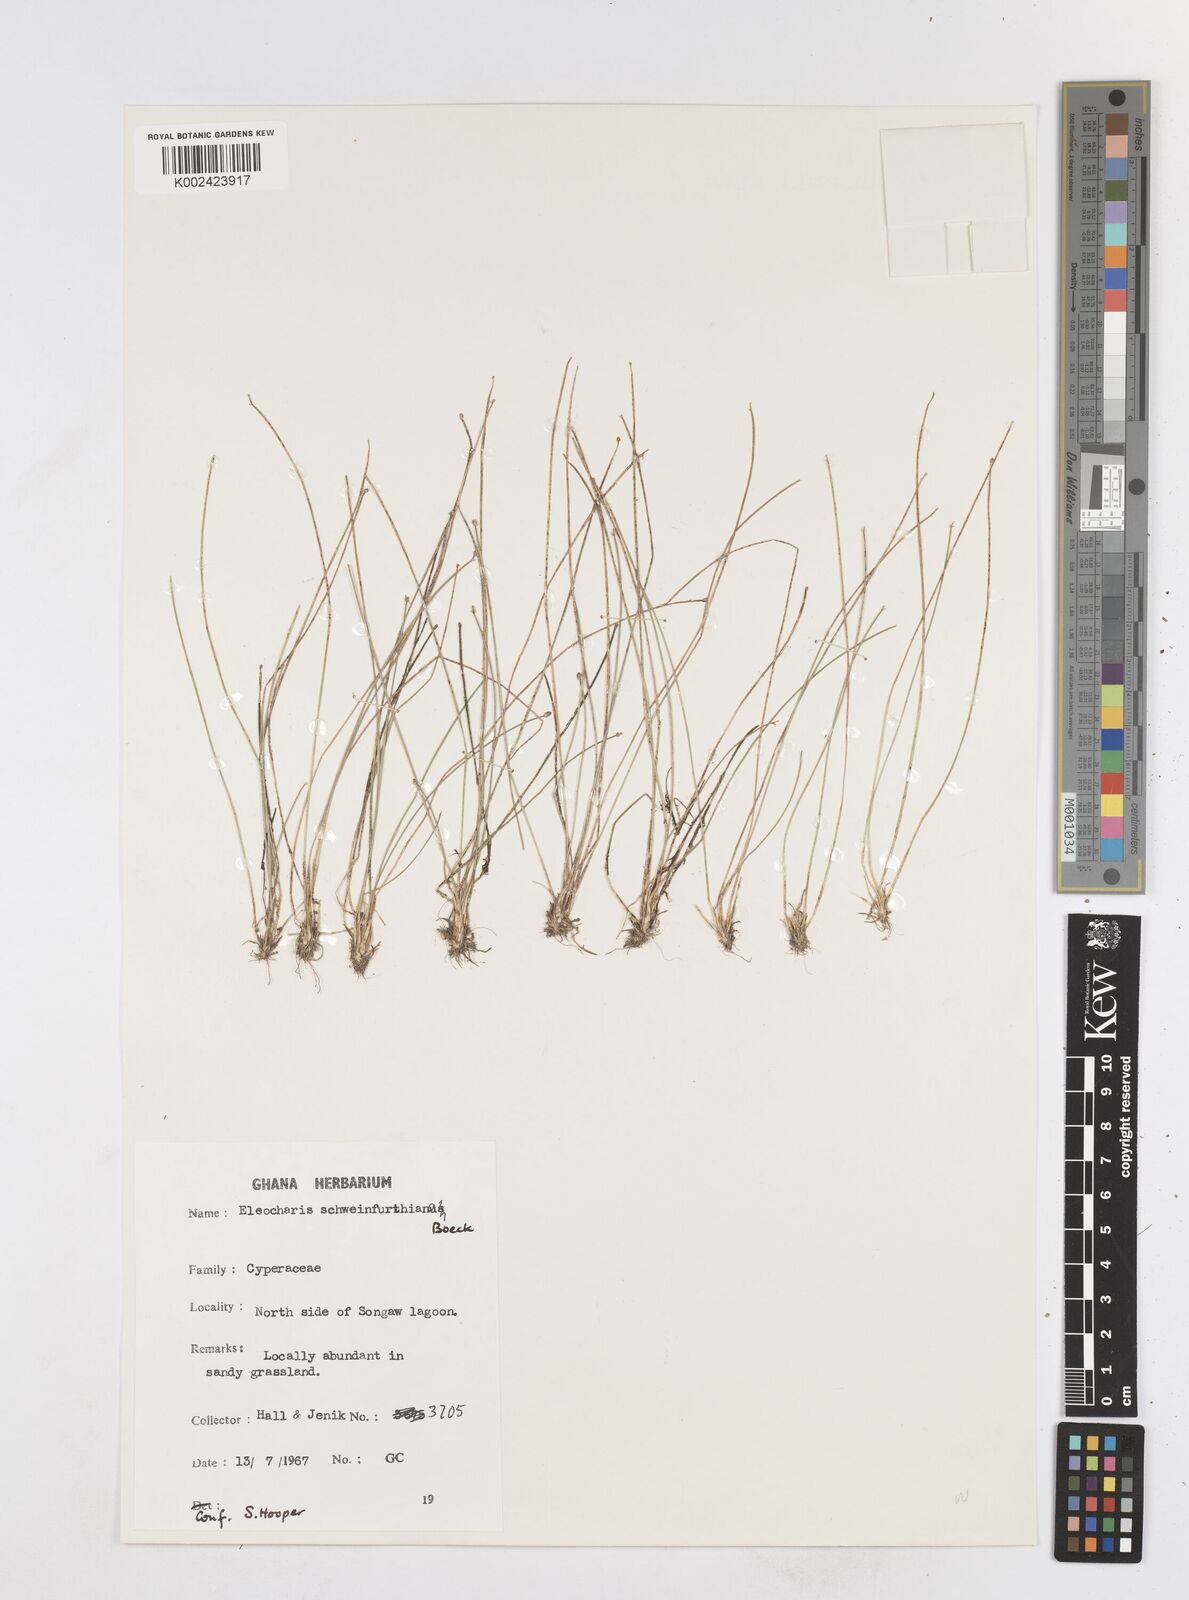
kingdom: Plantae
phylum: Tracheophyta
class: Liliopsida
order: Poales
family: Cyperaceae
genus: Eleocharis
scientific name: Eleocharis setifolia
